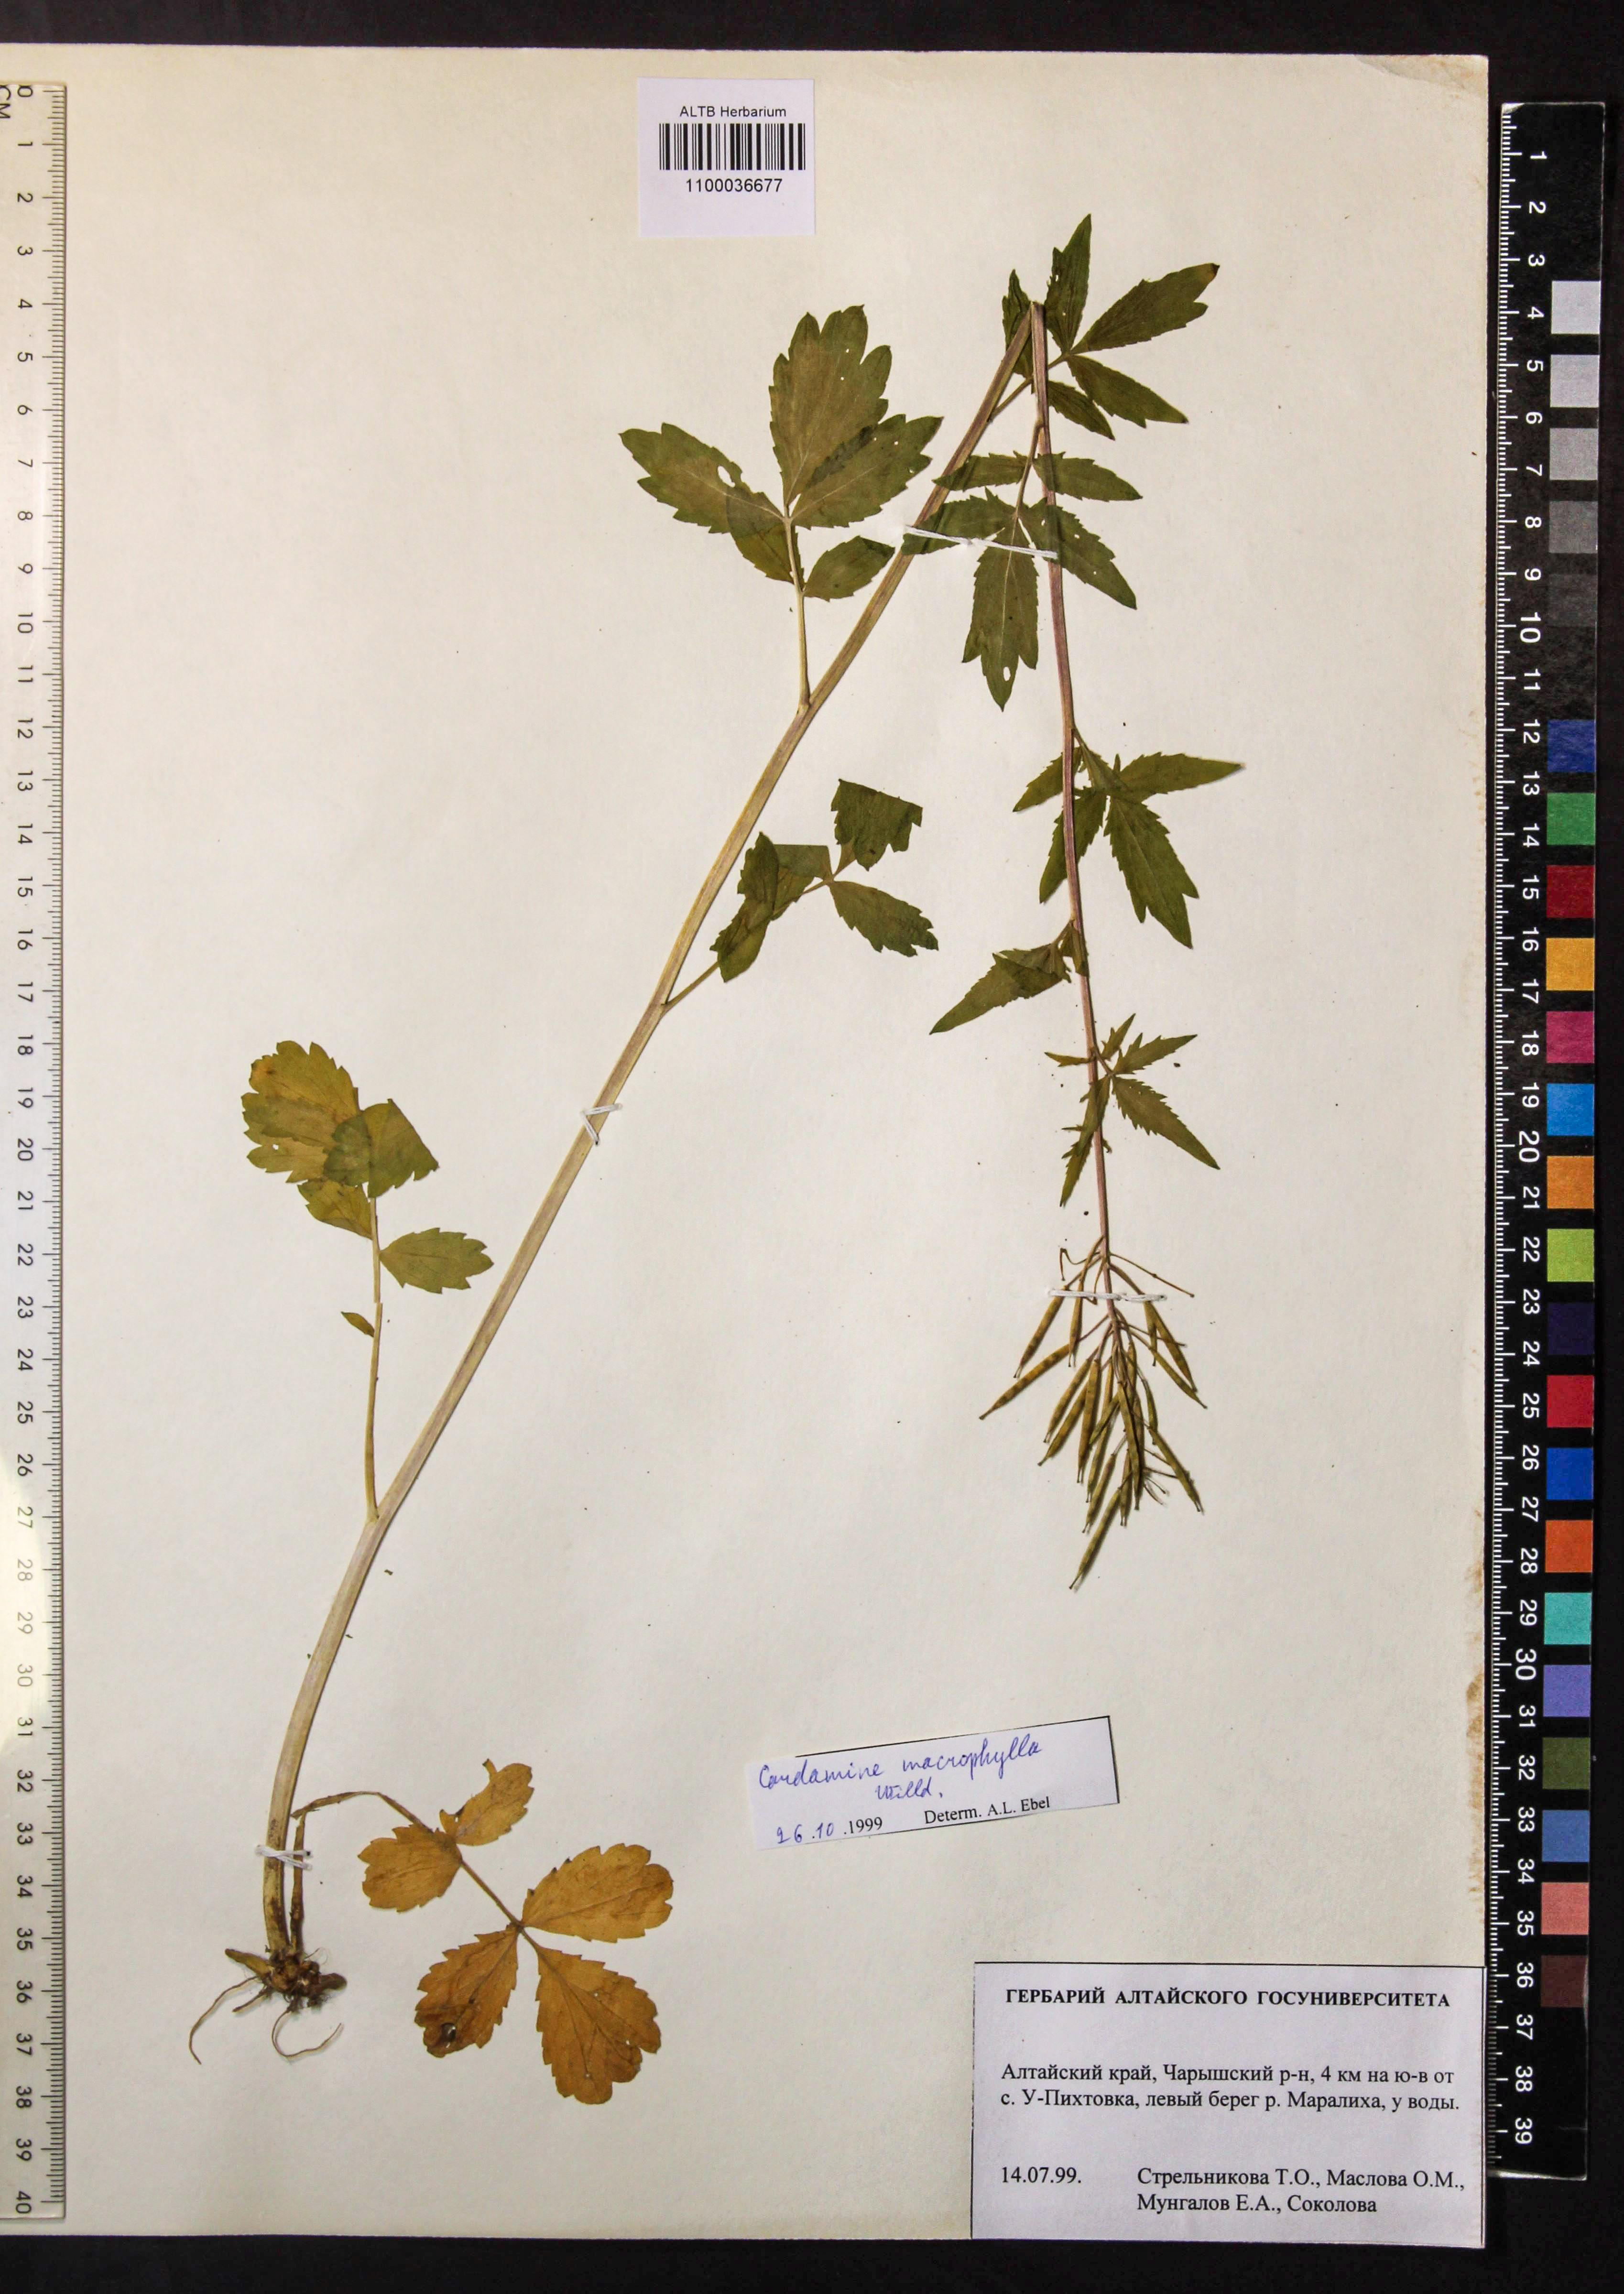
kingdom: Plantae
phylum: Tracheophyta
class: Magnoliopsida
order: Brassicales
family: Brassicaceae
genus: Cardamine
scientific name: Cardamine macrophylla
